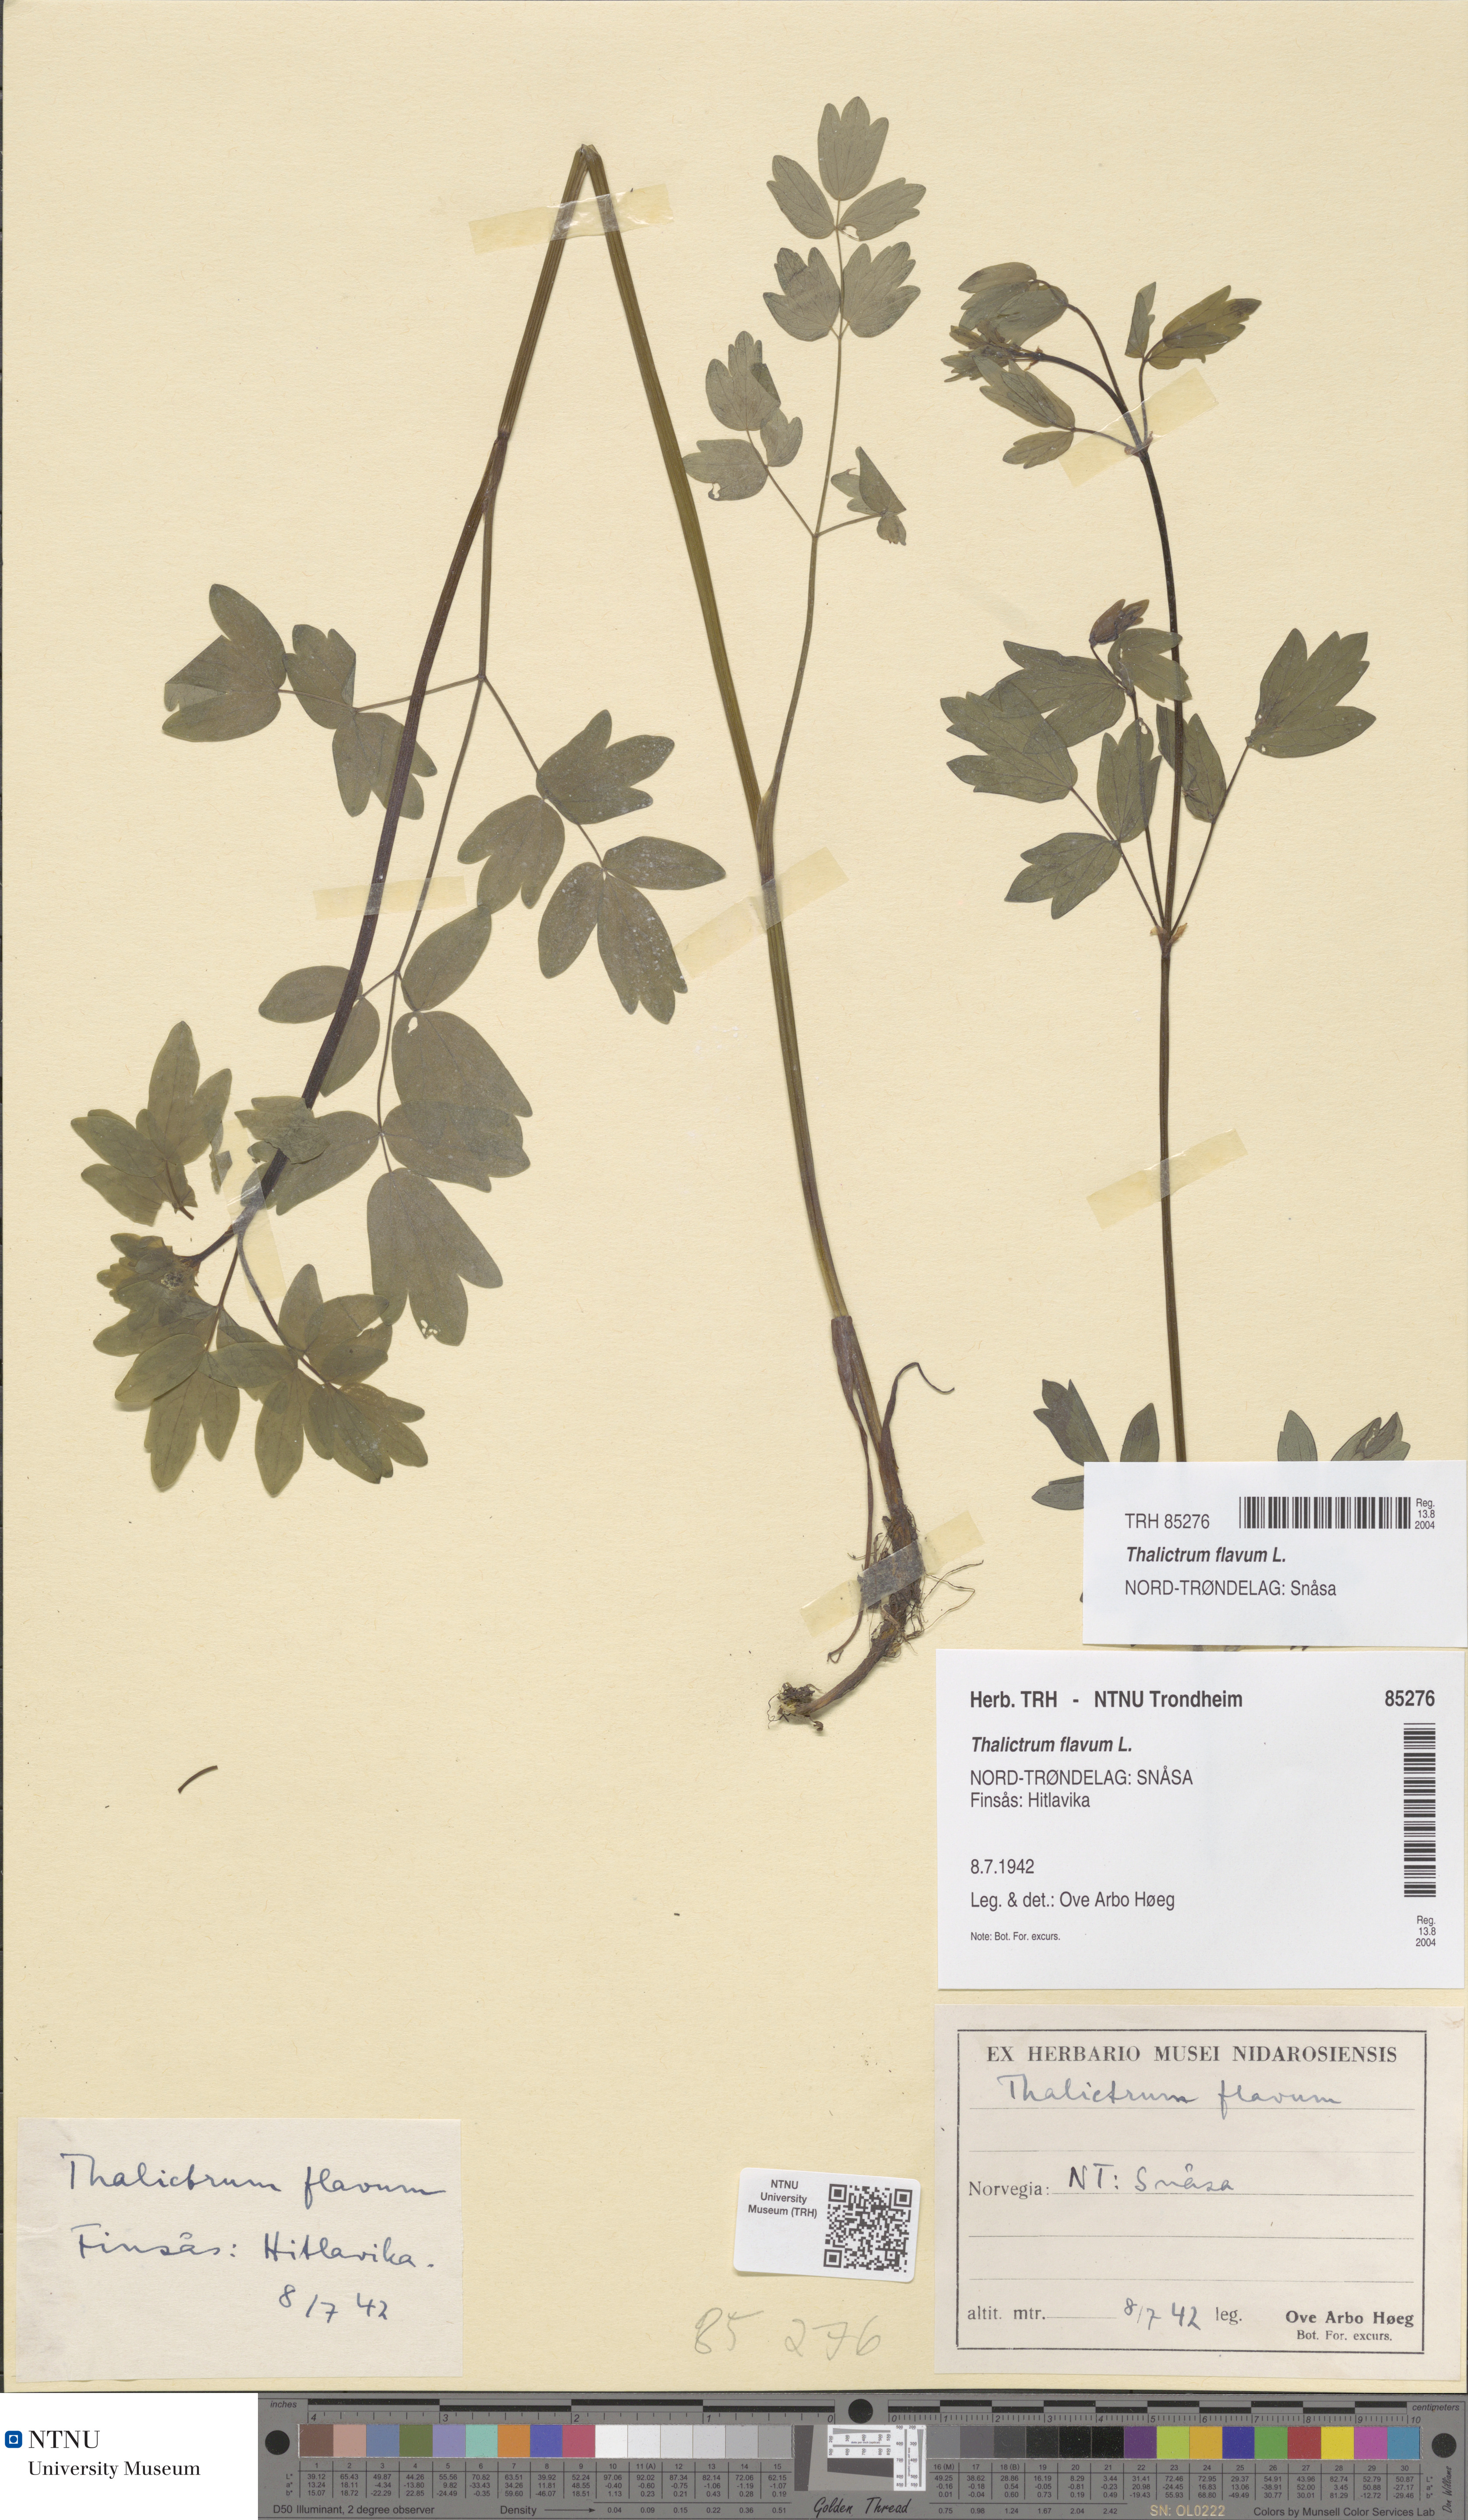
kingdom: Plantae
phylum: Tracheophyta
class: Magnoliopsida
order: Ranunculales
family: Ranunculaceae
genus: Thalictrum
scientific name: Thalictrum flavum
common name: Common meadow-rue
